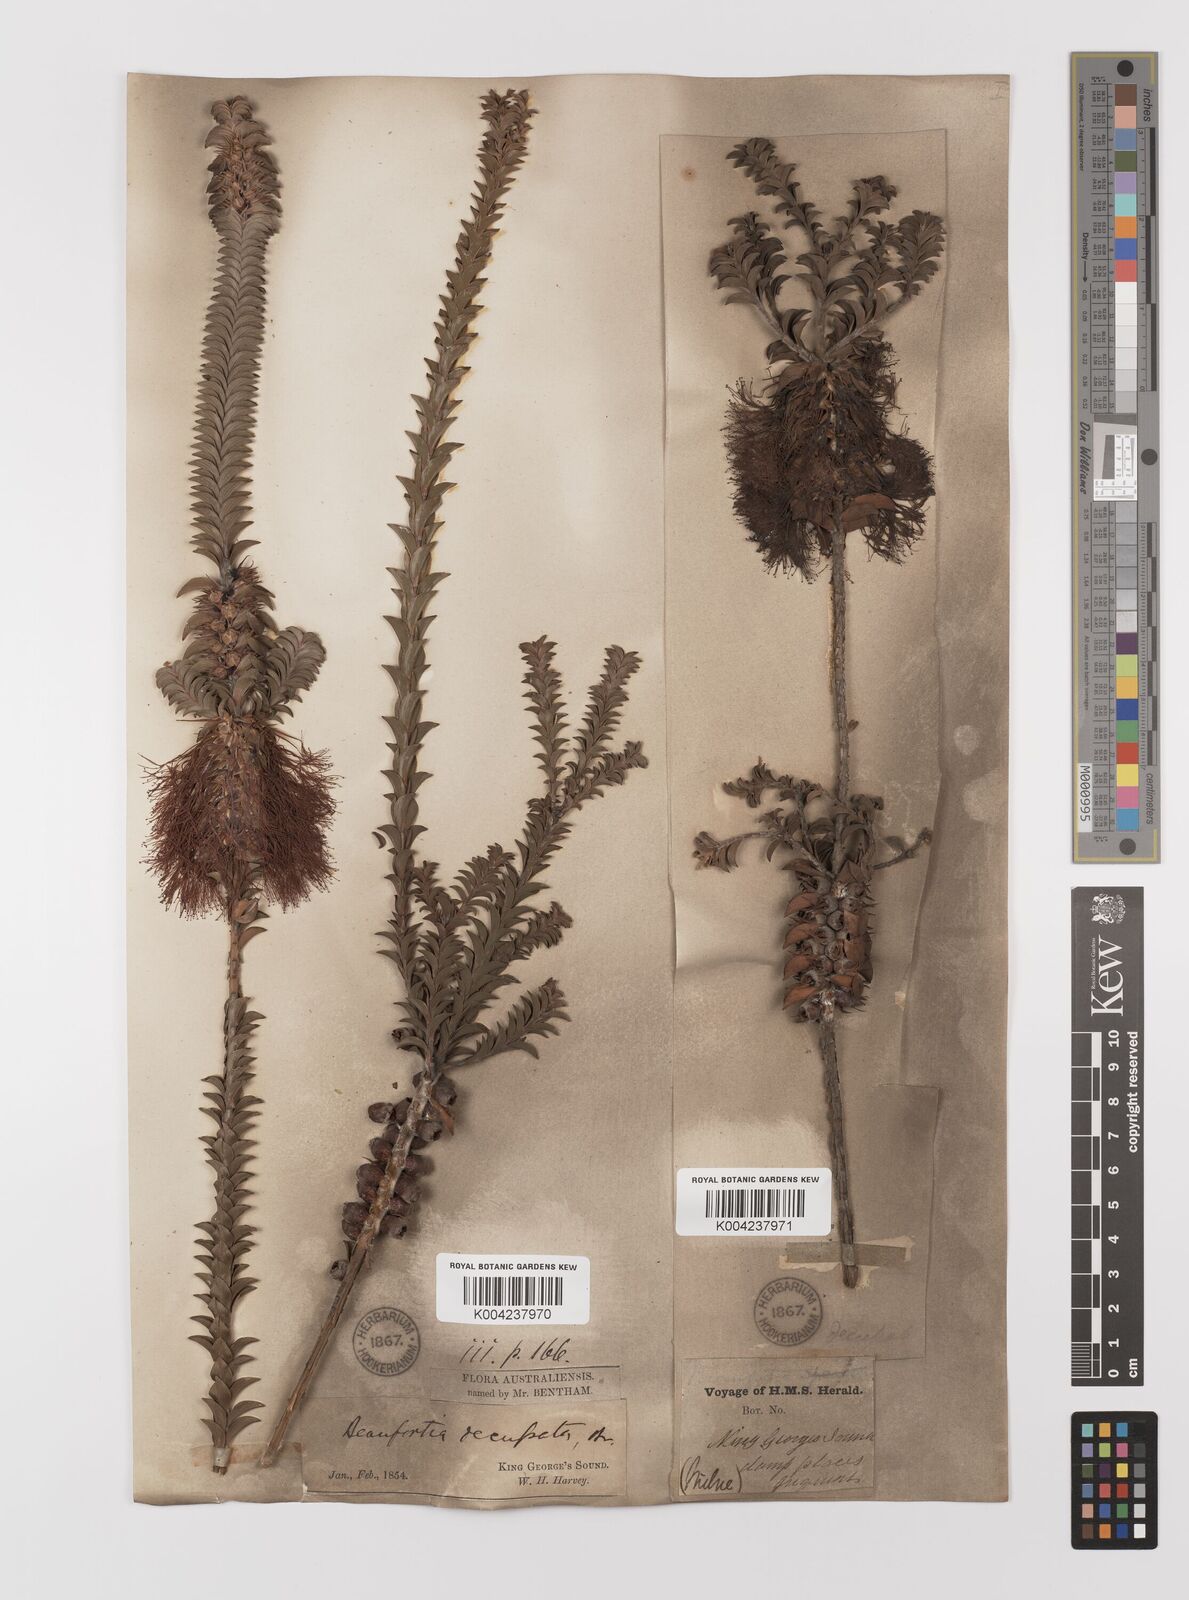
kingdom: Plantae
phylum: Tracheophyta
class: Magnoliopsida
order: Myrtales
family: Myrtaceae
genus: Melaleuca
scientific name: Melaleuca transversa
